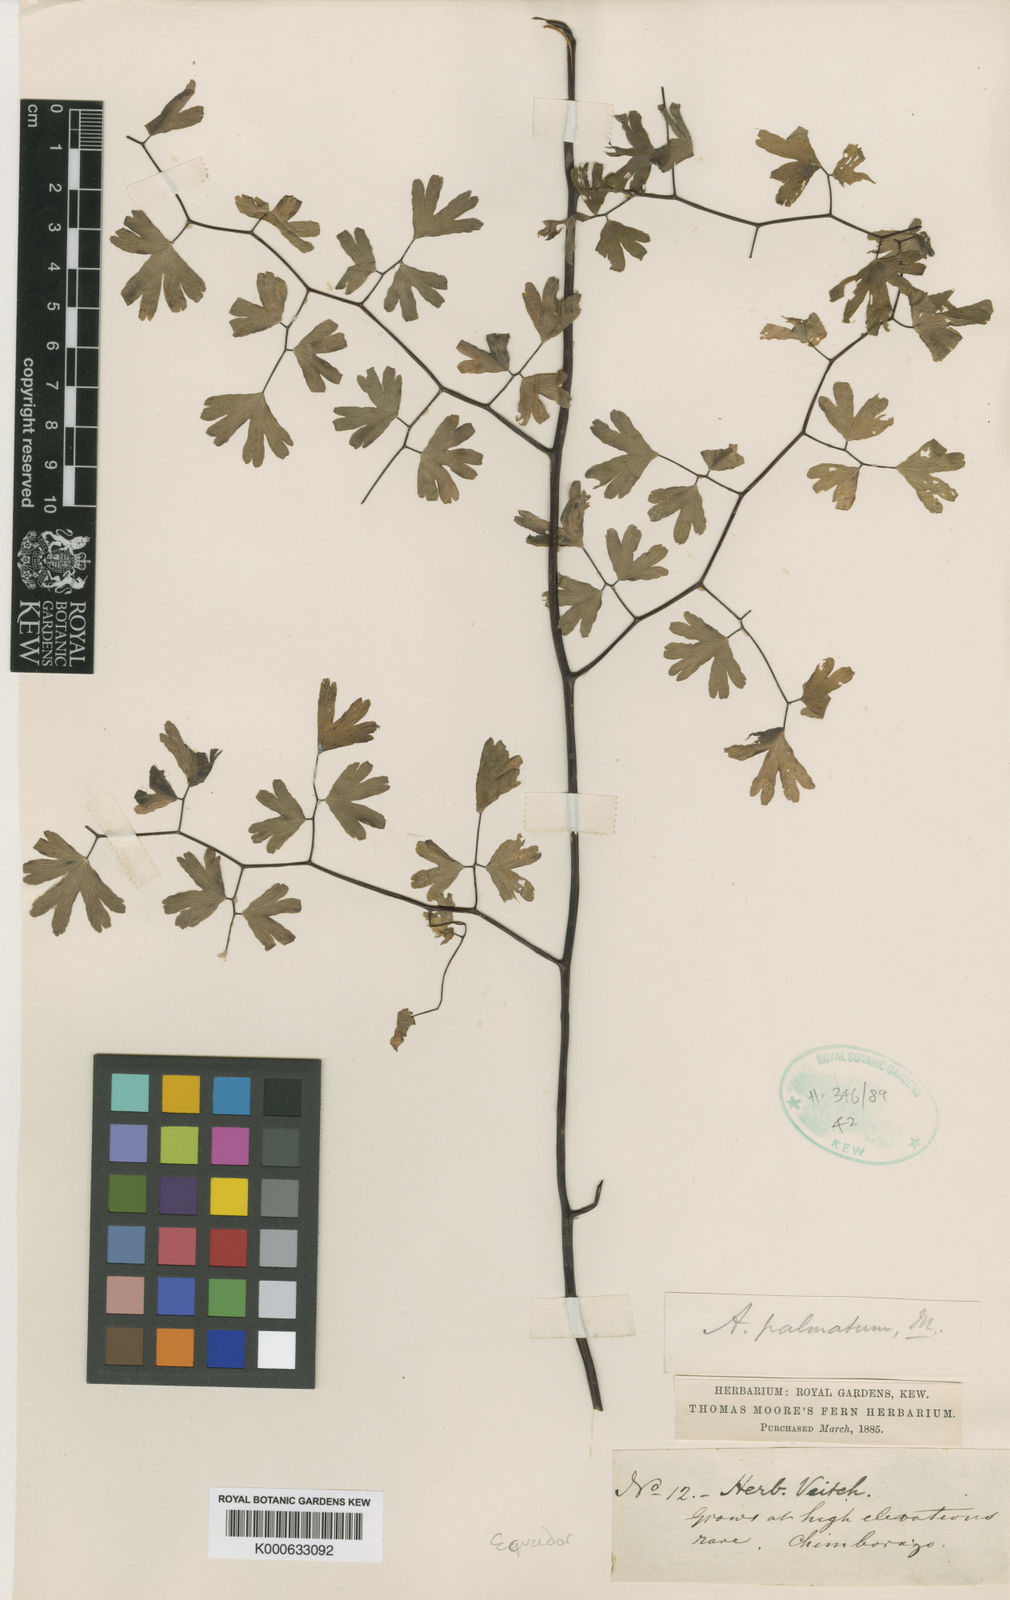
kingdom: Plantae
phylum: Tracheophyta
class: Polypodiopsida
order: Polypodiales
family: Pteridaceae
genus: Adiantum
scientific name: Adiantum
